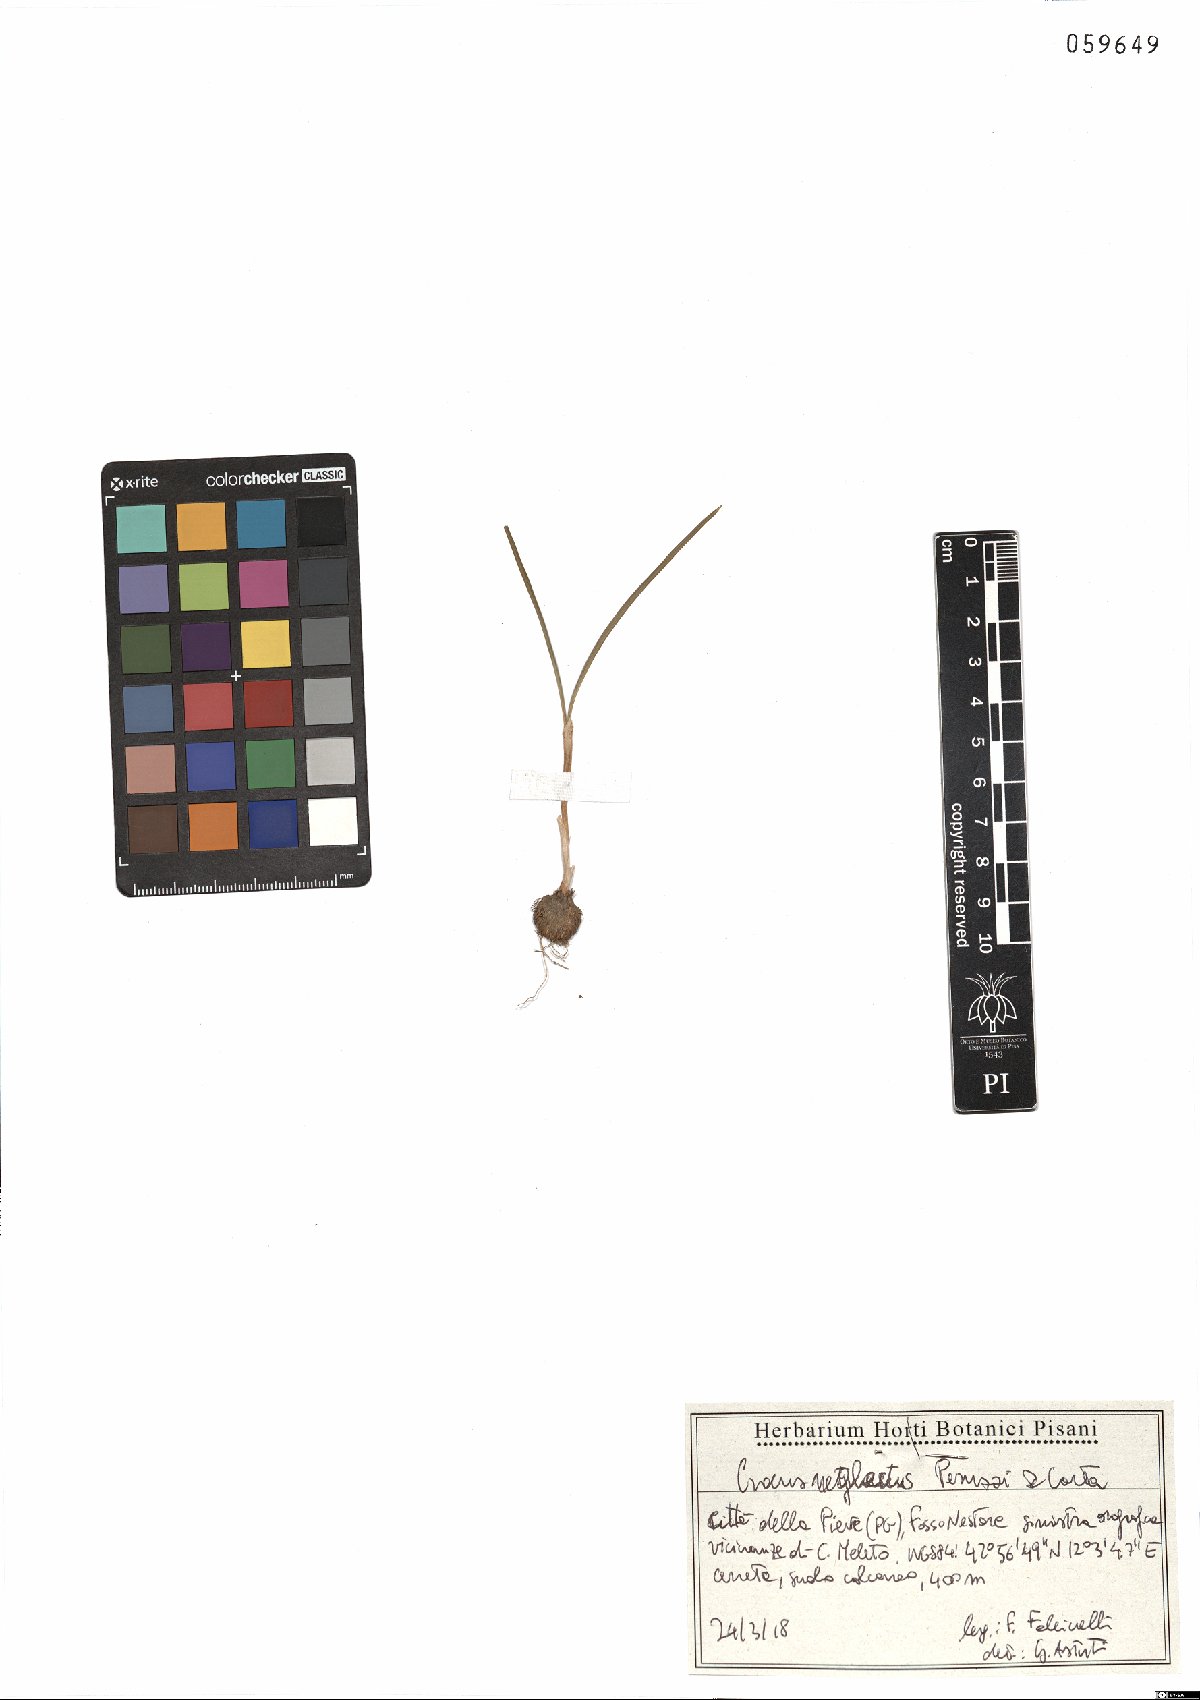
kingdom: Plantae
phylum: Tracheophyta
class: Liliopsida
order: Asparagales
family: Iridaceae
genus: Crocus
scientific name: Crocus neglectus
